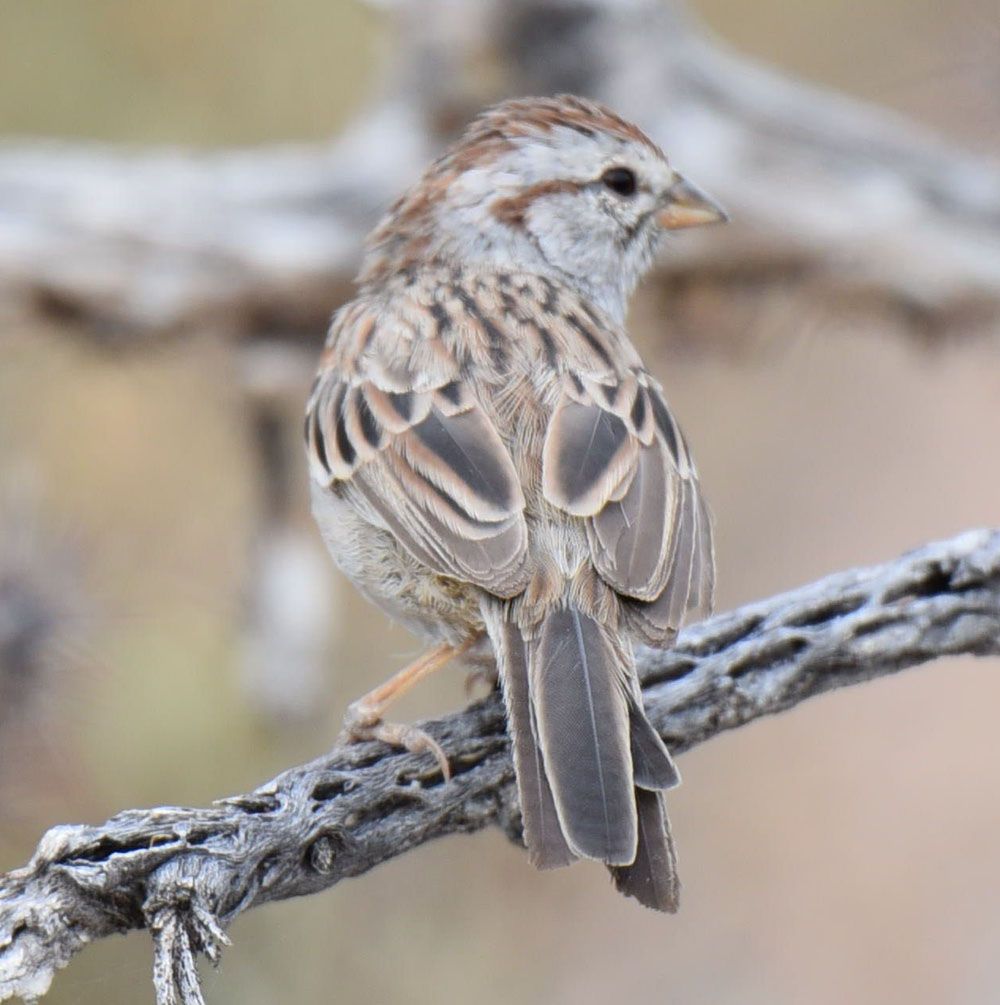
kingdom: Animalia
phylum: Chordata
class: Aves
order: Passeriformes
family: Passerellidae
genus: Peucaea
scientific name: Peucaea carpalis
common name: Rufous-winged sparrow
